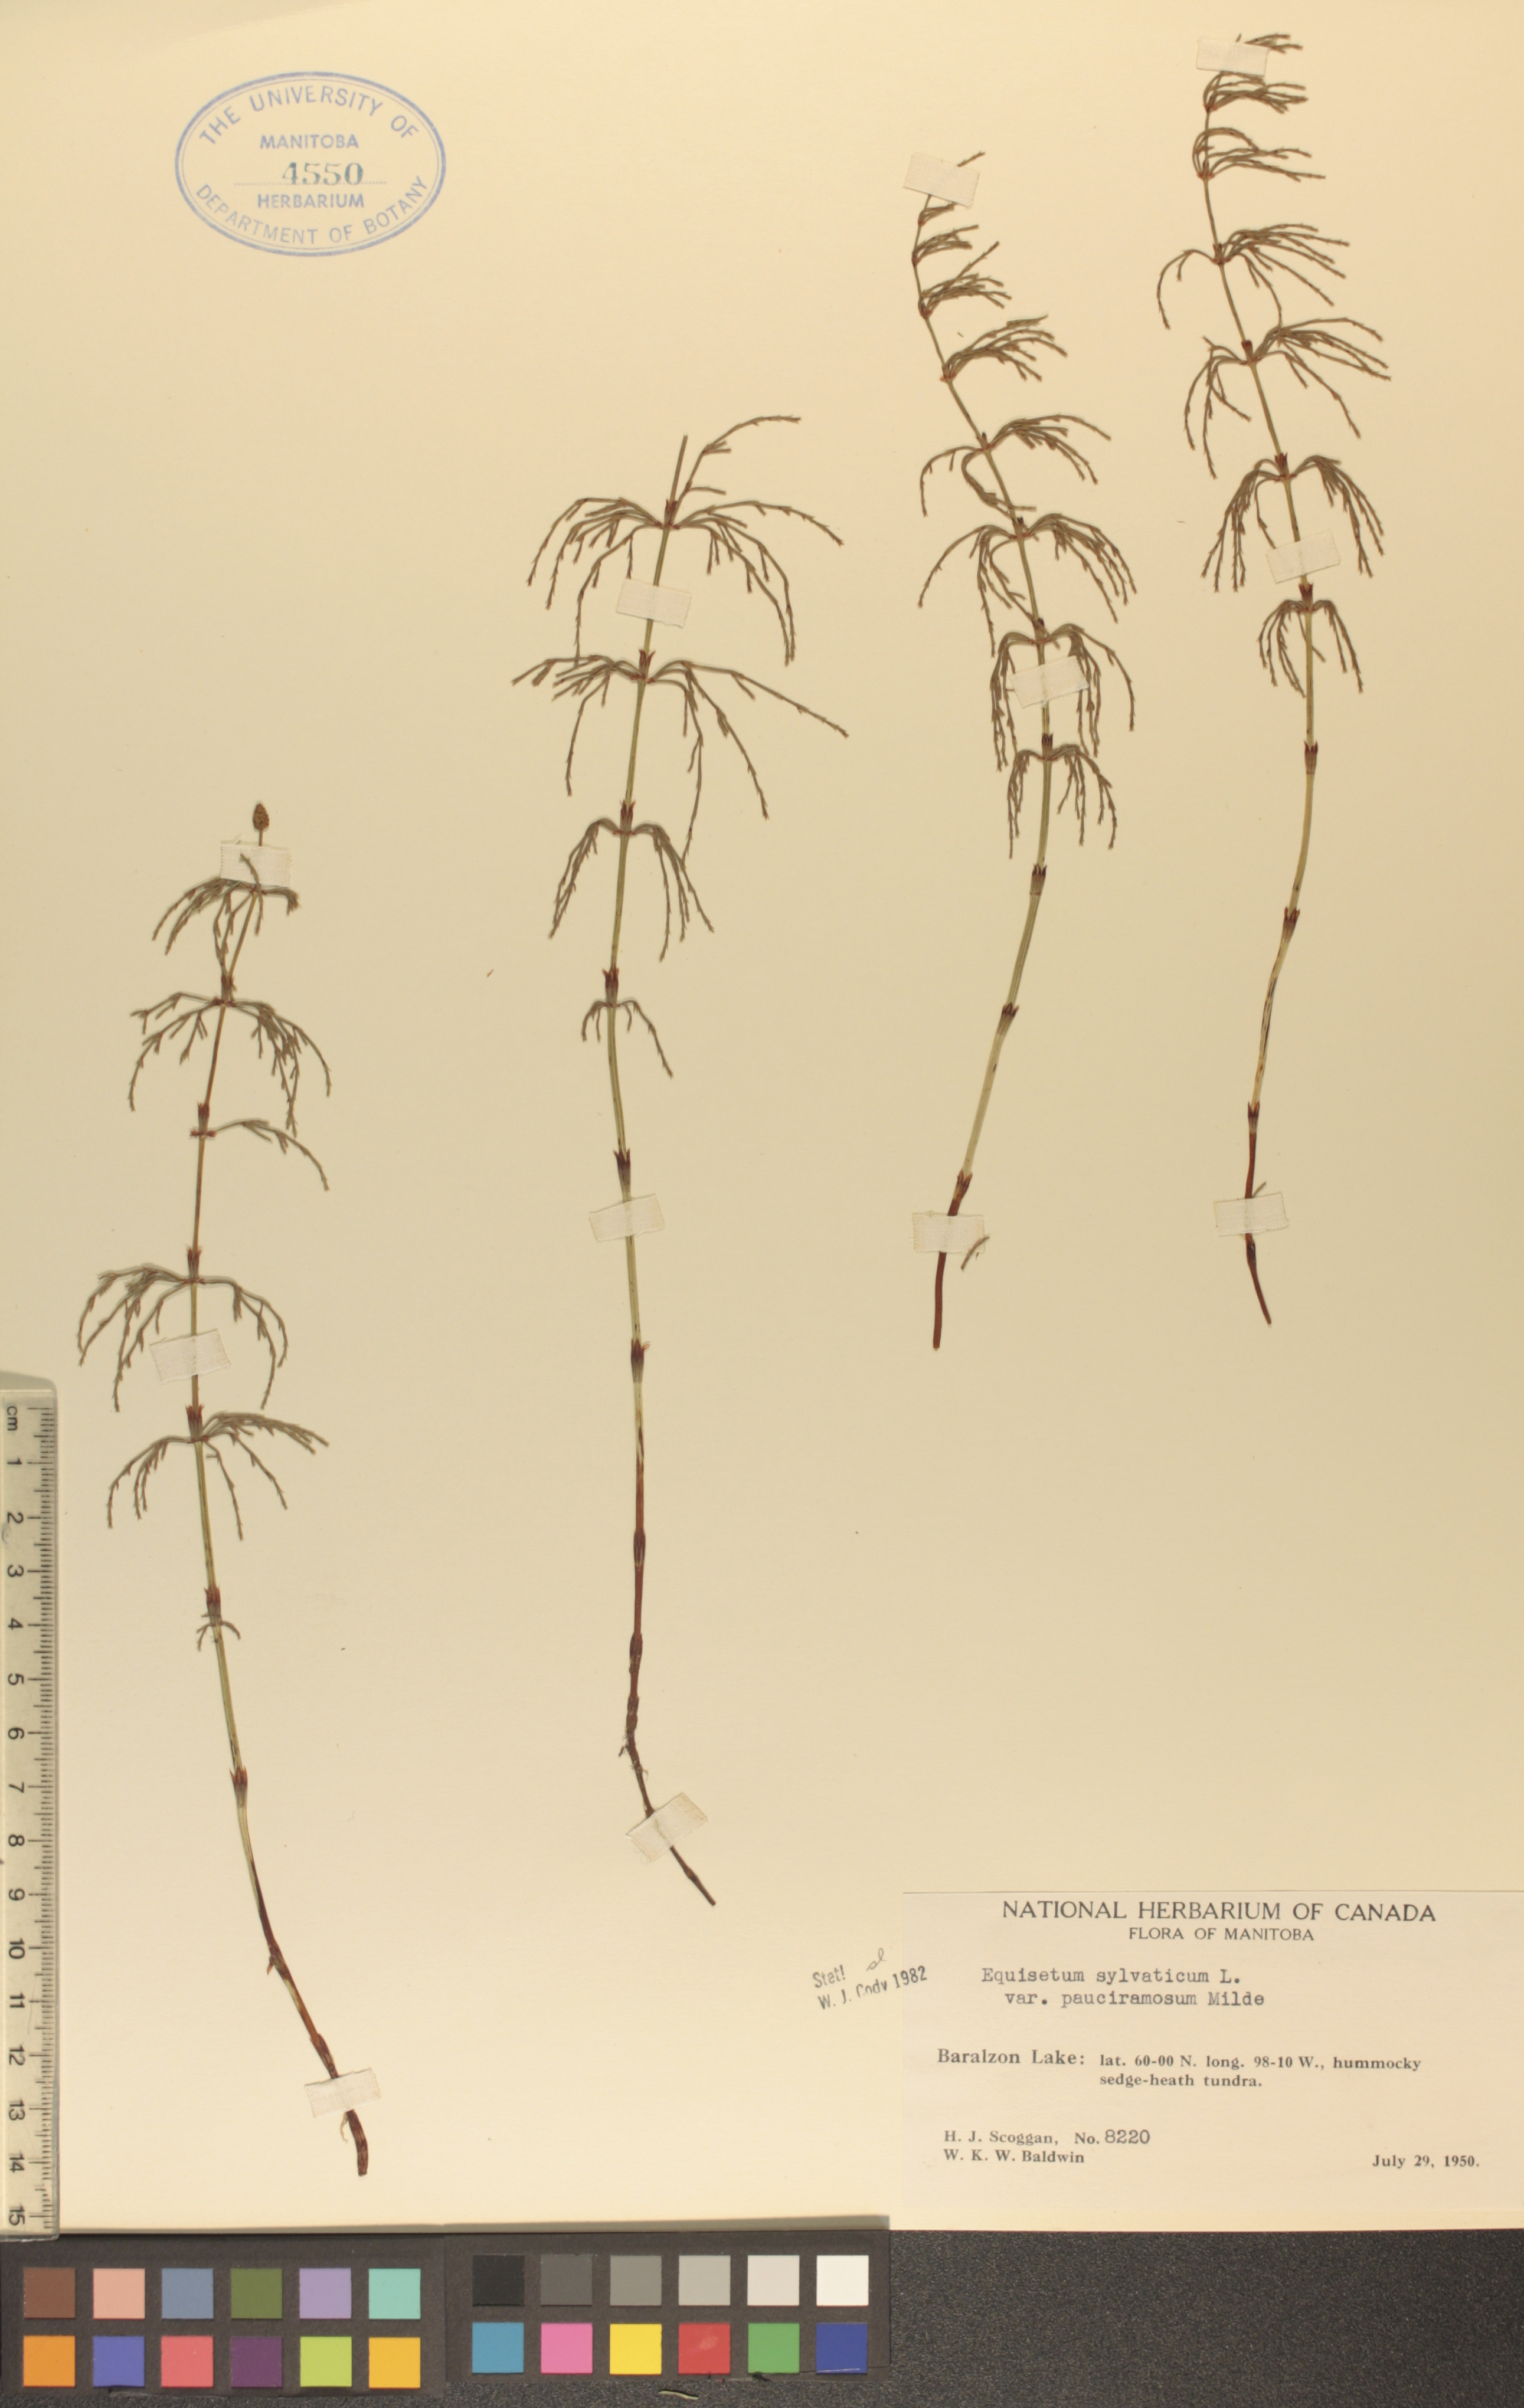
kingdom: Plantae
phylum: Tracheophyta
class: Polypodiopsida
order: Equisetales
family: Equisetaceae
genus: Equisetum
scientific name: Equisetum sylvaticum
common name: Wood horsetail
